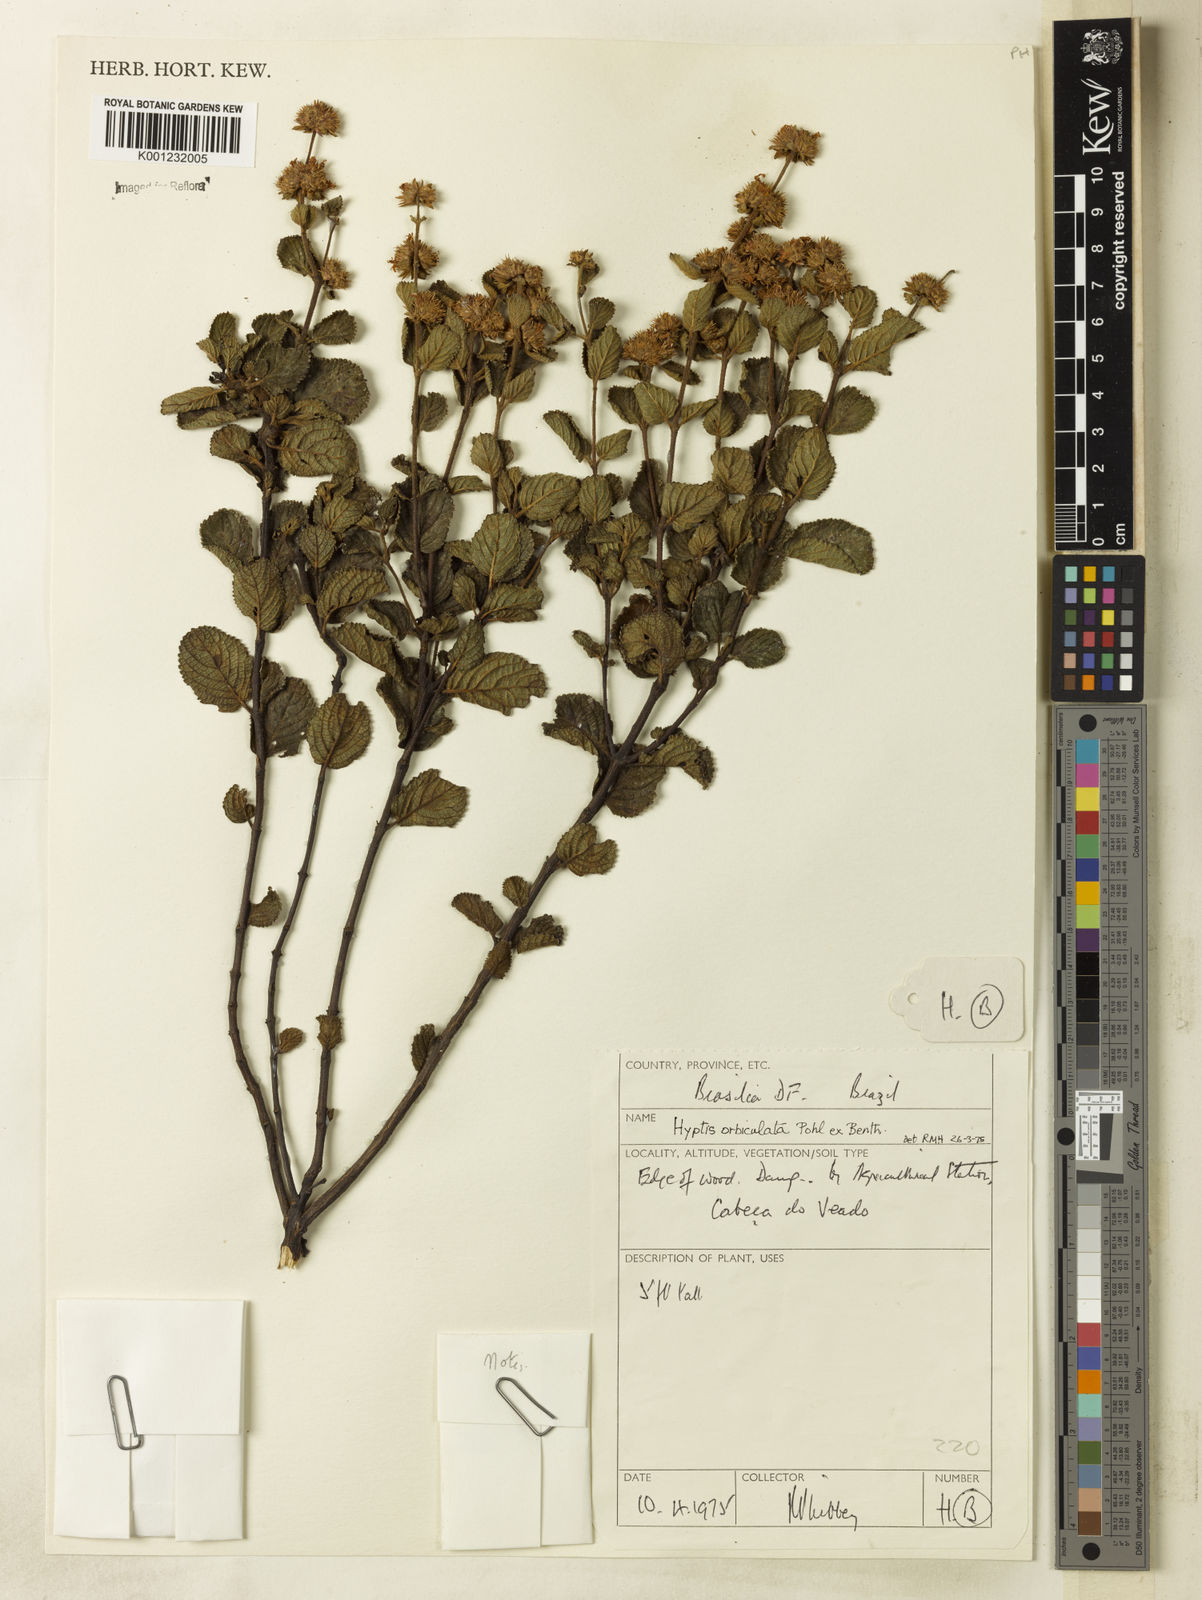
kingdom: Plantae
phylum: Tracheophyta
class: Magnoliopsida
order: Lamiales
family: Lamiaceae
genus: Hyptis
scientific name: Hyptis orbiculata
